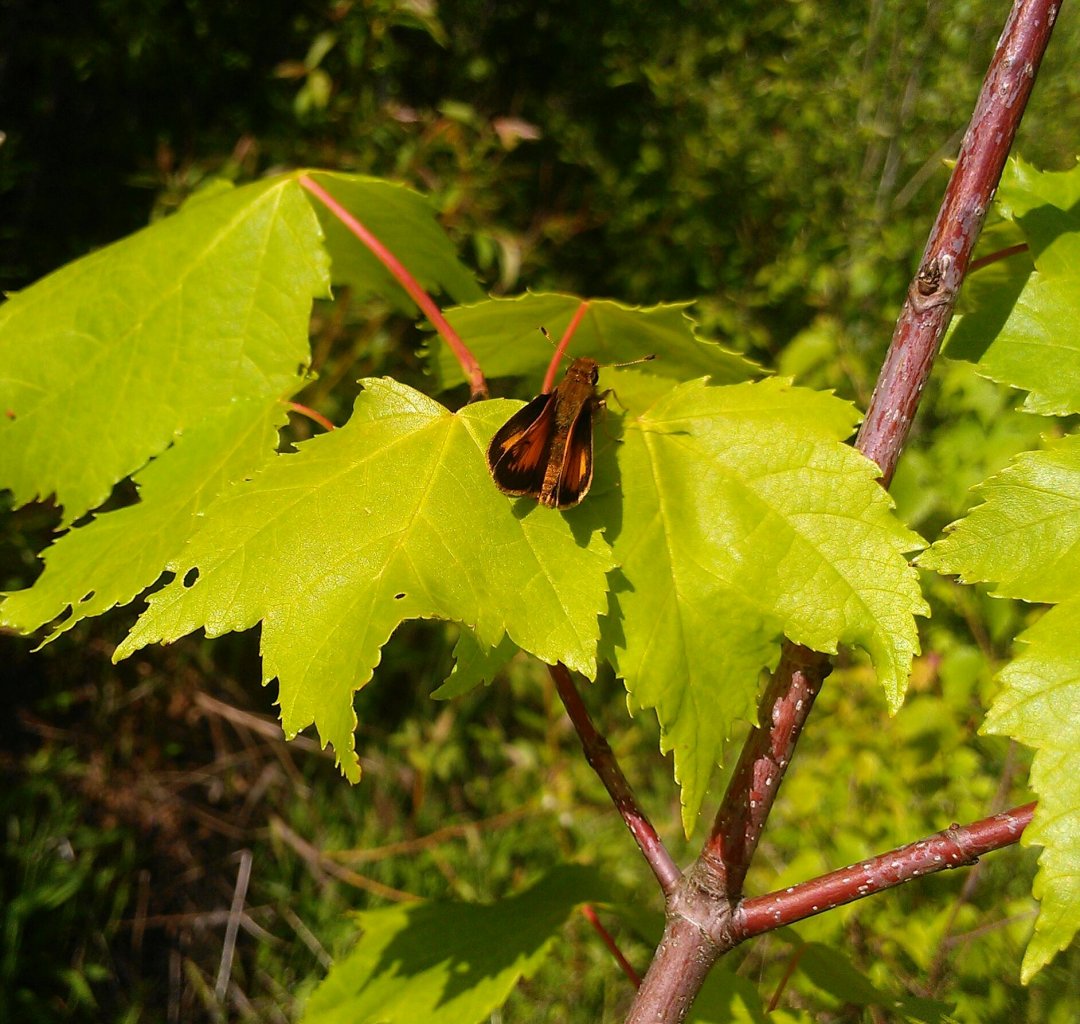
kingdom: Animalia
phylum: Arthropoda
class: Insecta
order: Lepidoptera
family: Hesperiidae
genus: Lon
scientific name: Lon hobomok
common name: Hobomok Skipper
